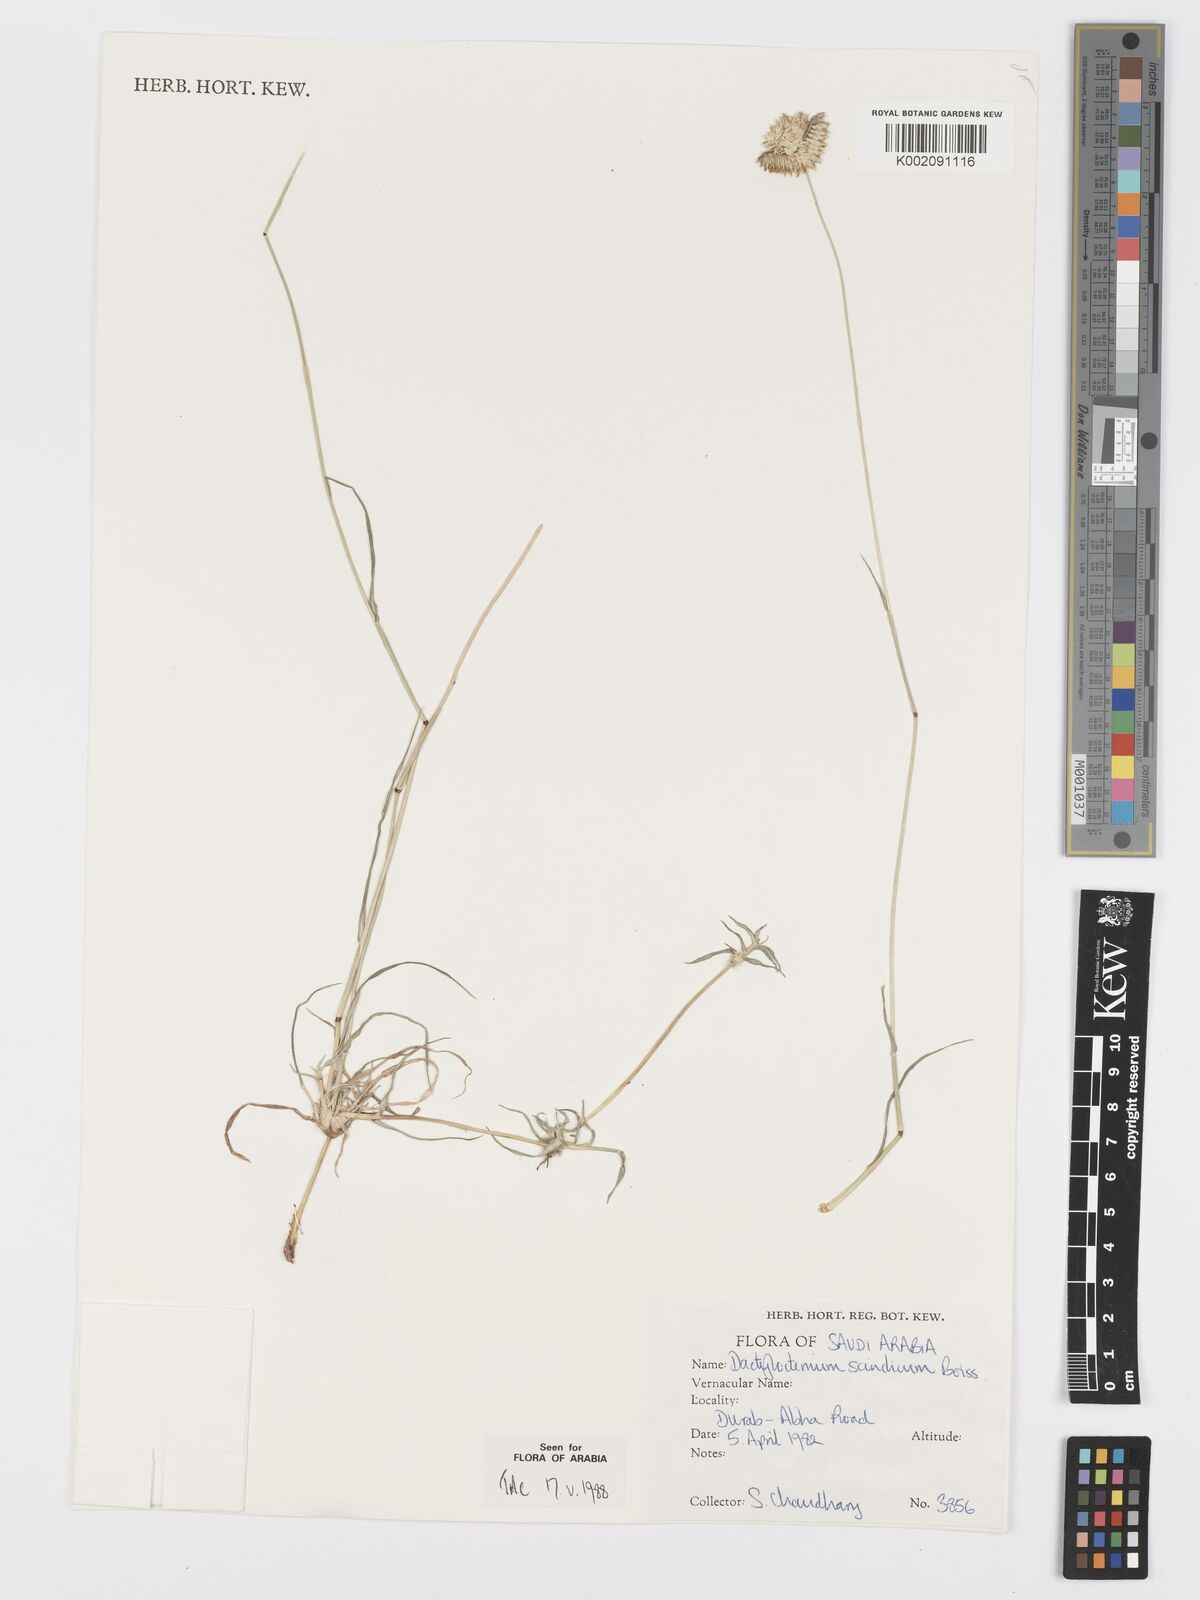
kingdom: Plantae
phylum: Tracheophyta
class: Liliopsida
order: Poales
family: Poaceae
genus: Dactyloctenium
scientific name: Dactyloctenium scindicum
